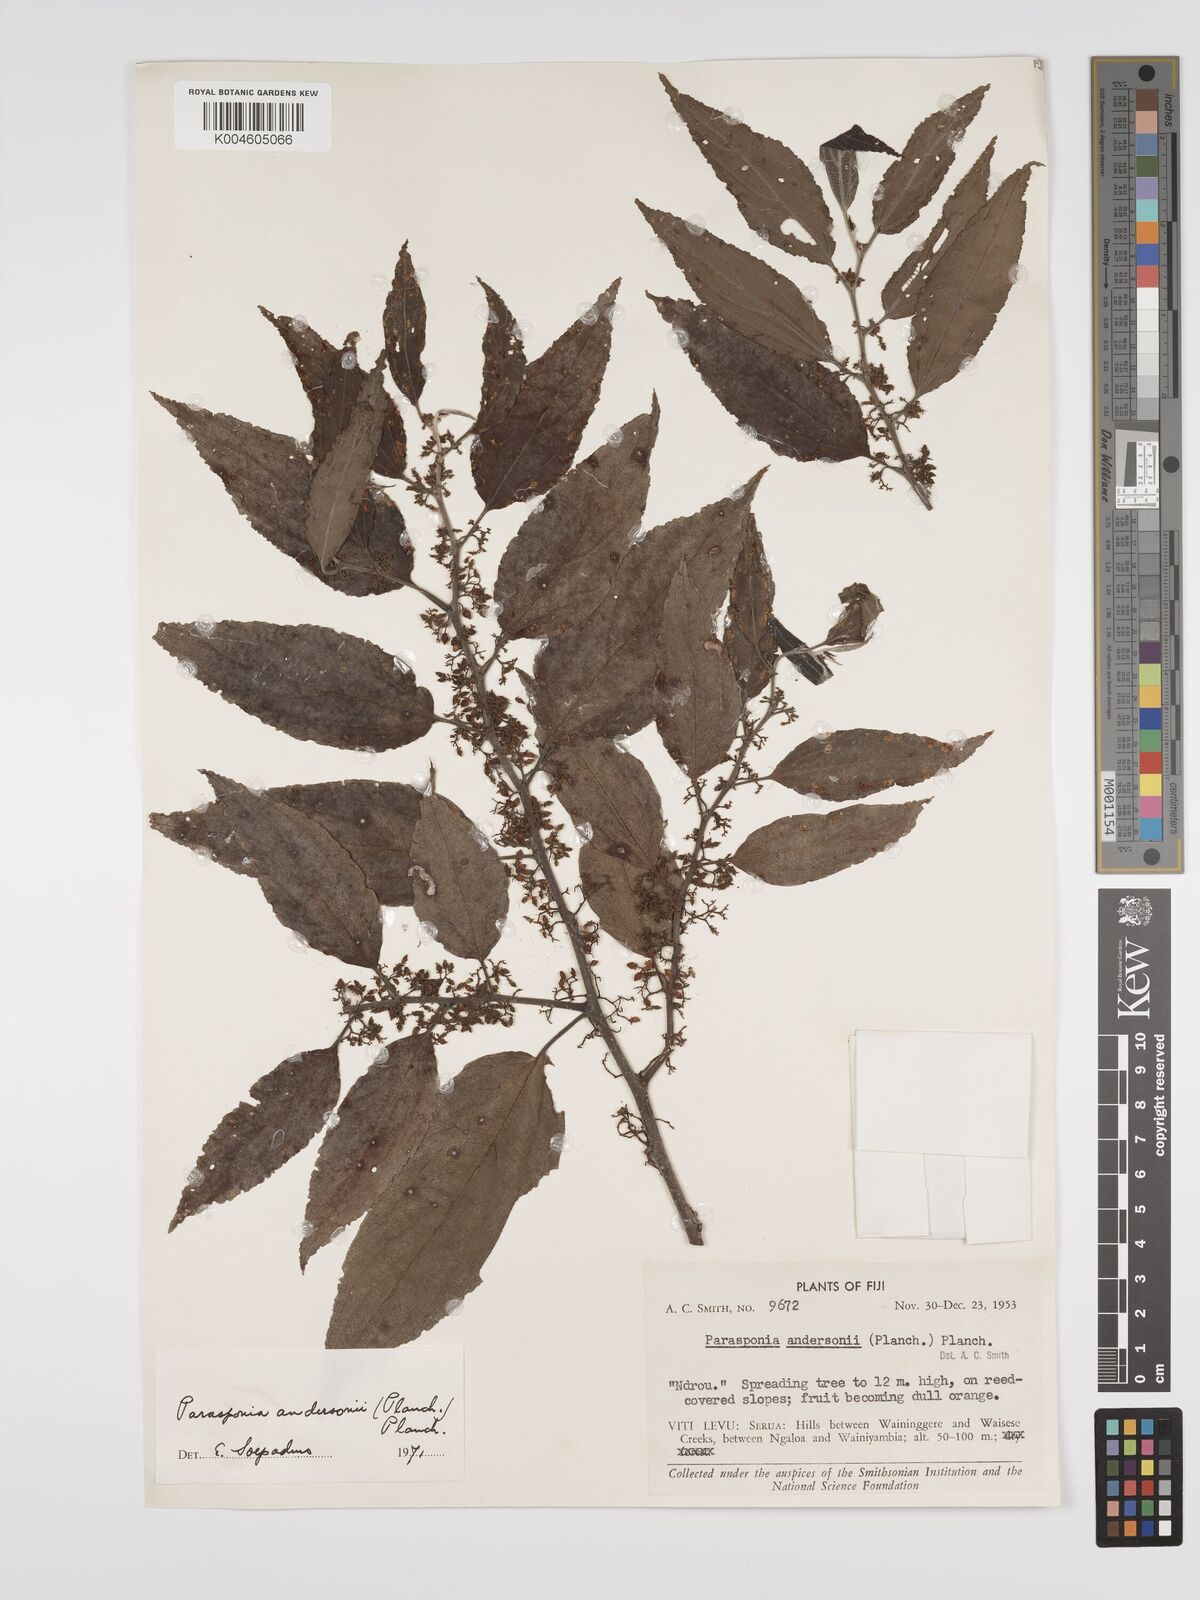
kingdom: Plantae
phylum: Tracheophyta
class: Magnoliopsida
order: Rosales
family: Cannabaceae
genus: Trema
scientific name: Trema andersonii
